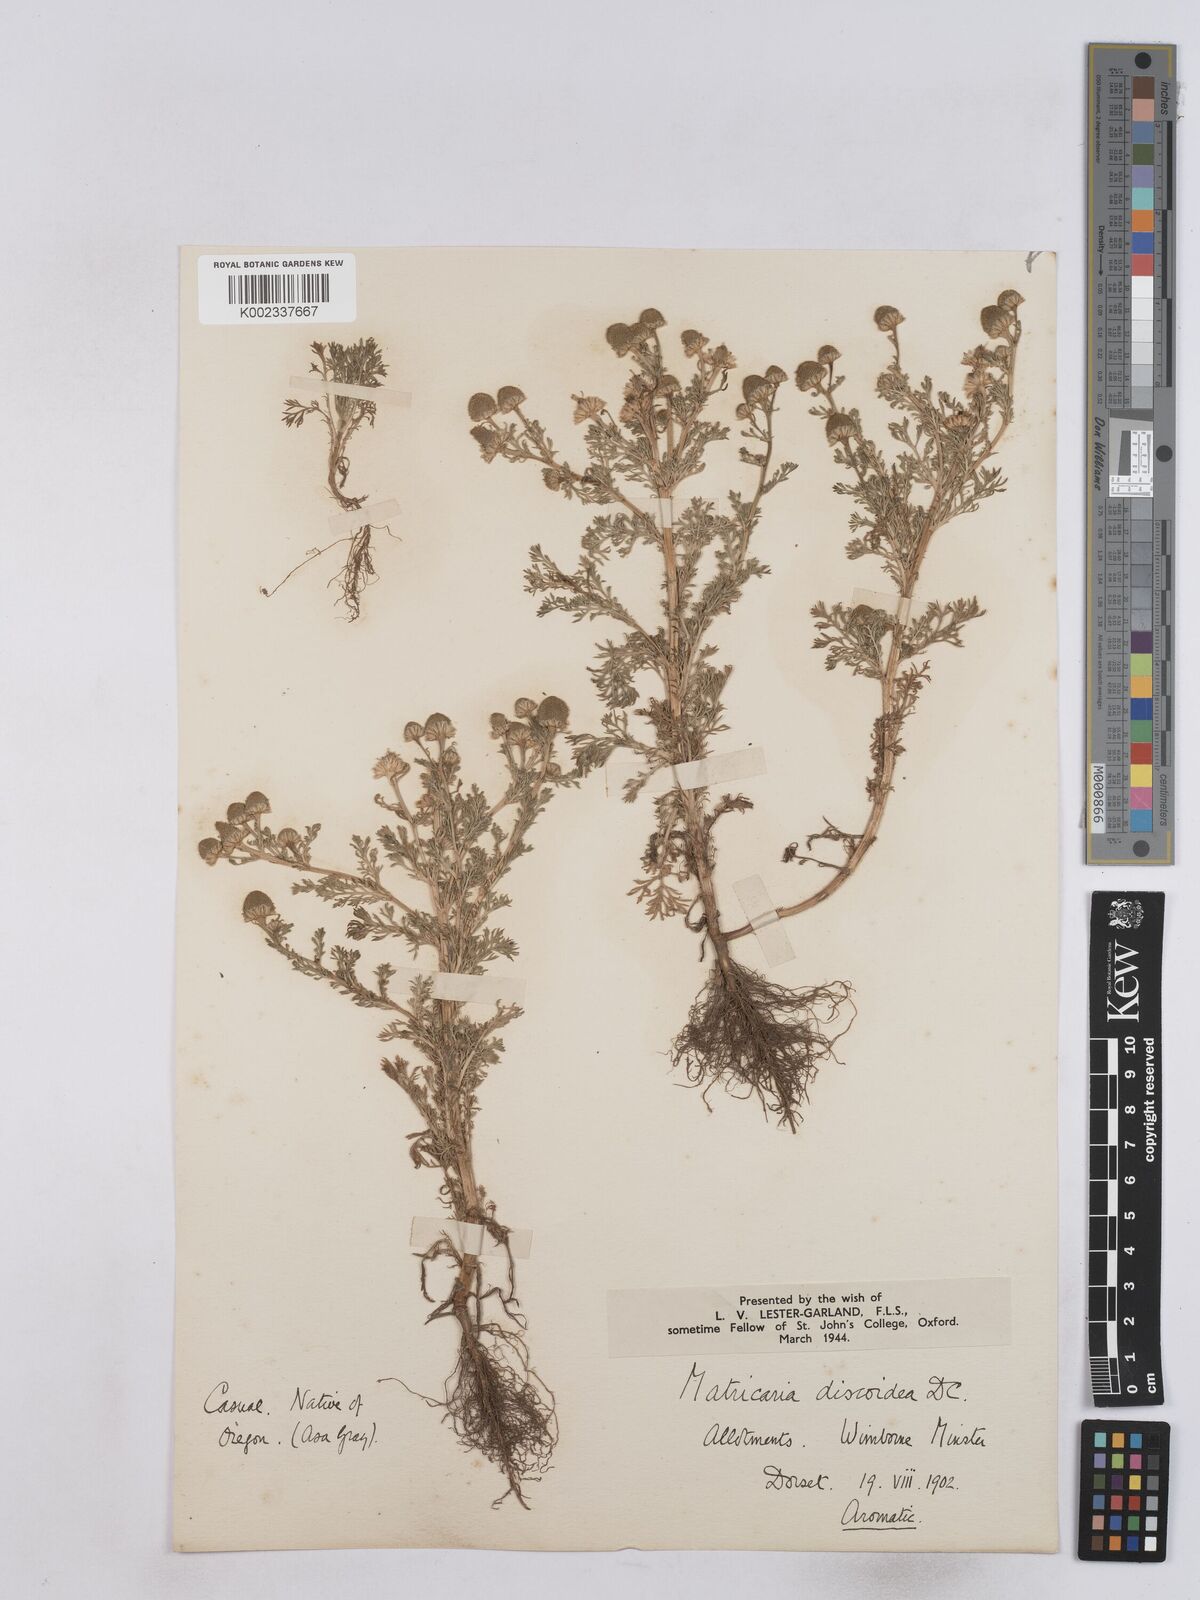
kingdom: Plantae
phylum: Tracheophyta
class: Magnoliopsida
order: Asterales
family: Asteraceae
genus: Matricaria
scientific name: Matricaria discoidea
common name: Disc mayweed
